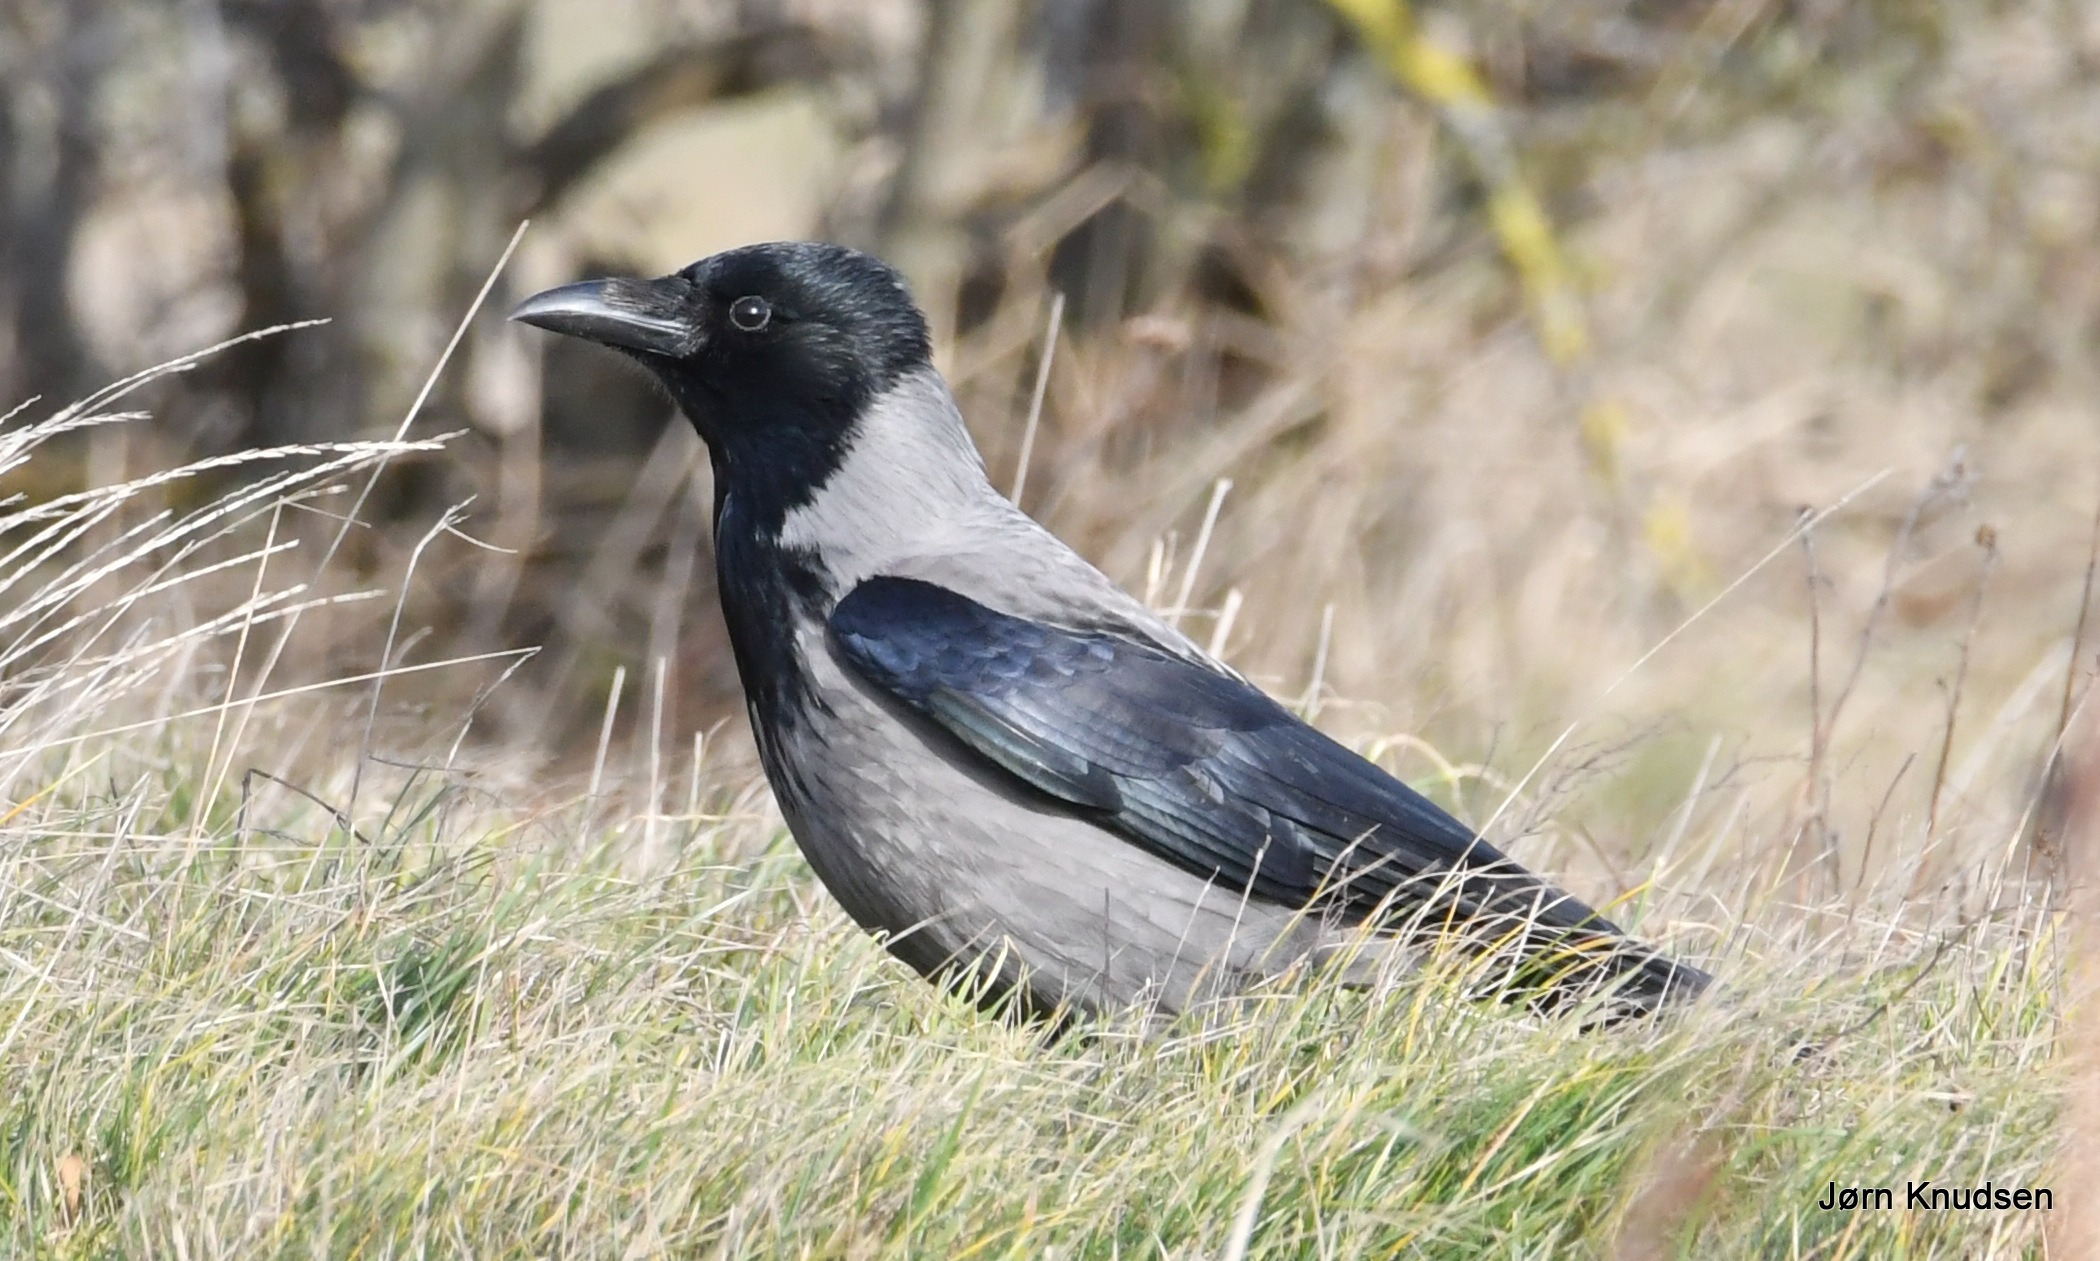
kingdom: Animalia
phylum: Chordata
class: Aves
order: Passeriformes
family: Corvidae
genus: Corvus
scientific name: Corvus cornix
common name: Gråkrage
